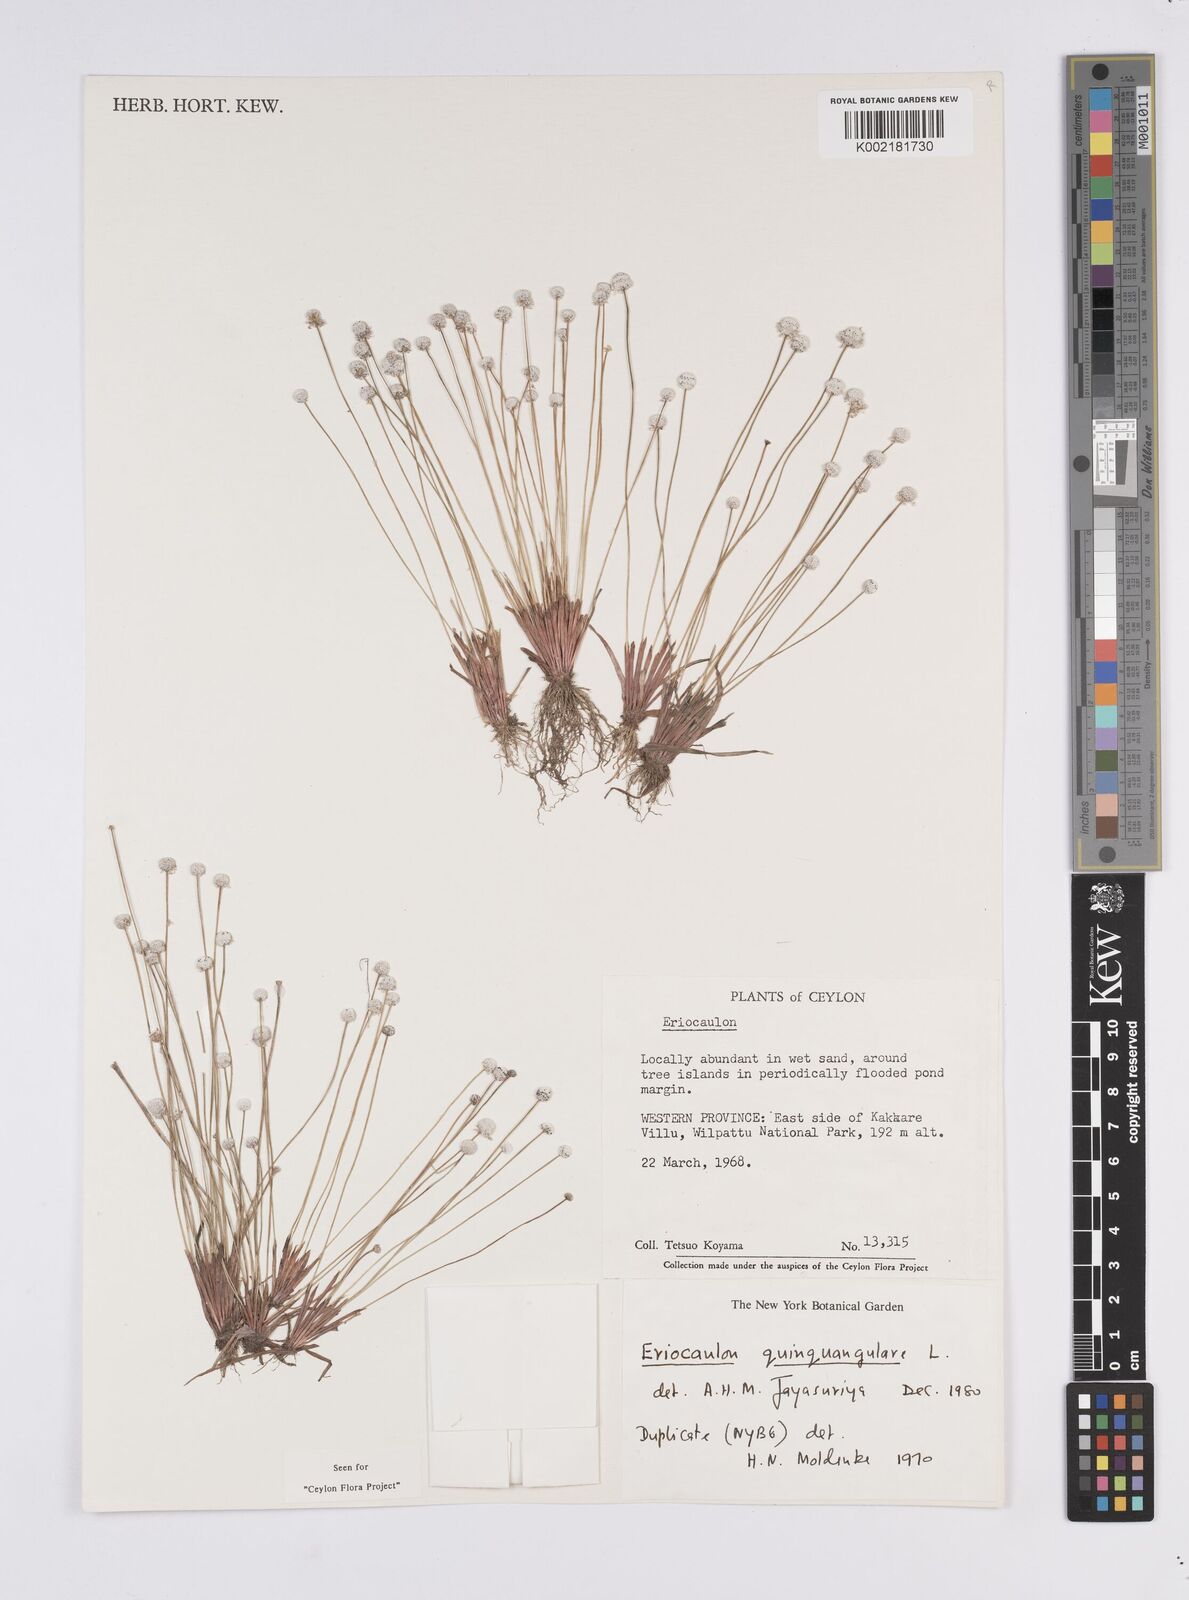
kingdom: Plantae
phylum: Tracheophyta
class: Liliopsida
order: Poales
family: Eriocaulaceae
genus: Eriocaulon
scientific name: Eriocaulon quinquangulare
